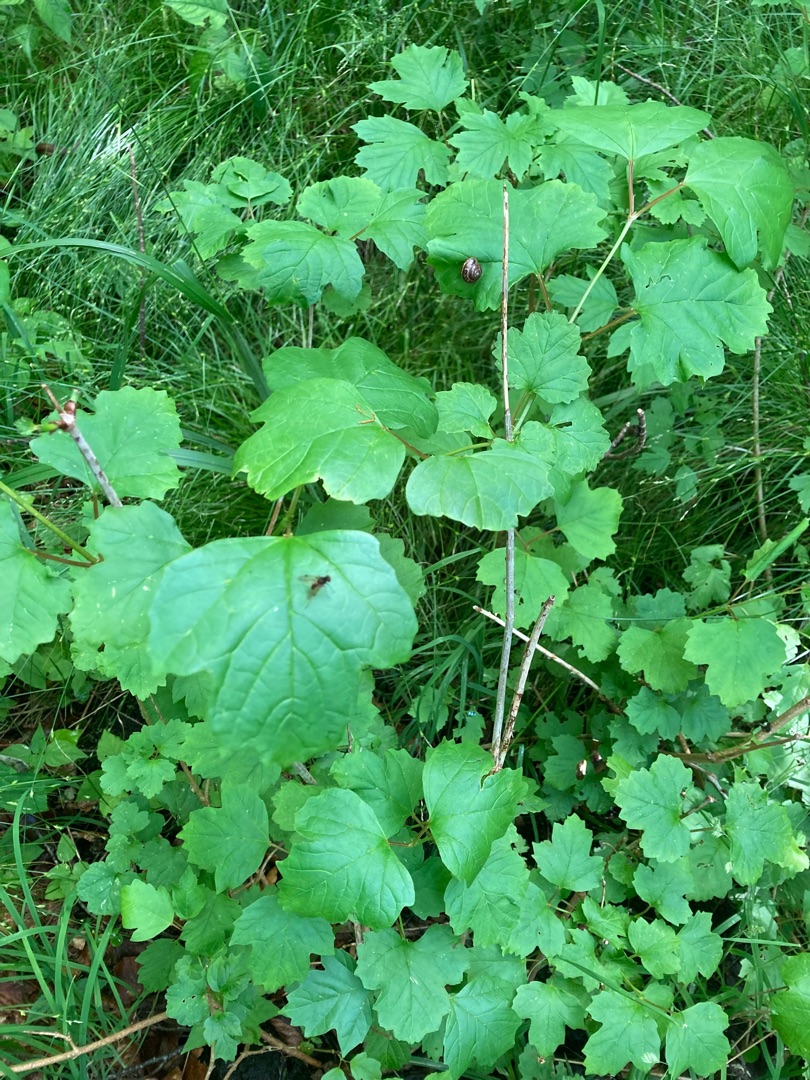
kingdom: Plantae
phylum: Tracheophyta
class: Magnoliopsida
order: Dipsacales
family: Viburnaceae
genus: Viburnum
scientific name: Viburnum opulus
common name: Kvalkved
